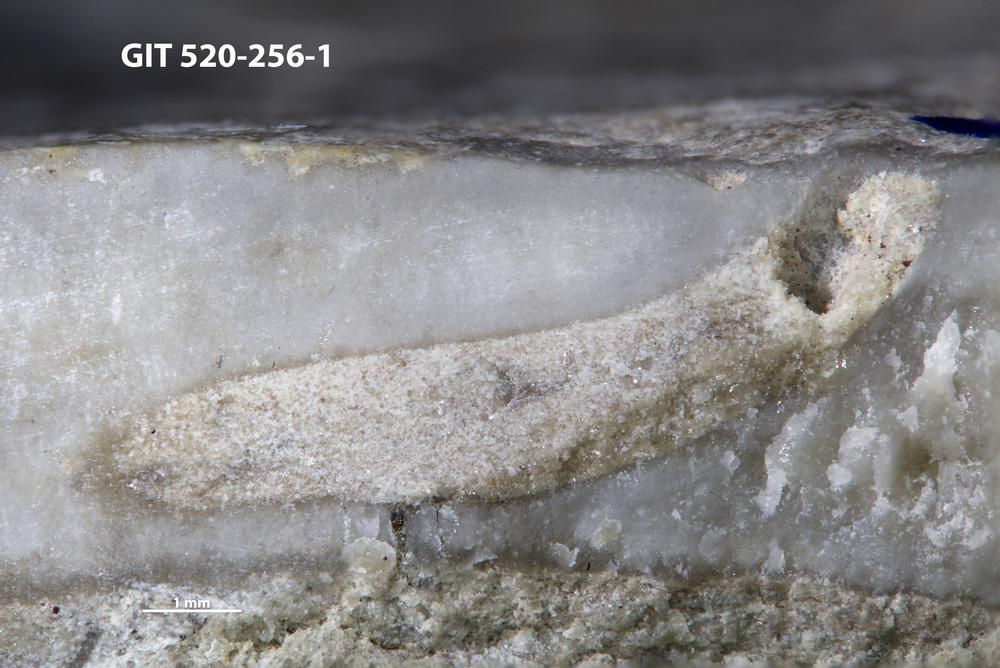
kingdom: Animalia
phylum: Sipuncula
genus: Trypanites
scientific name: Trypanites
